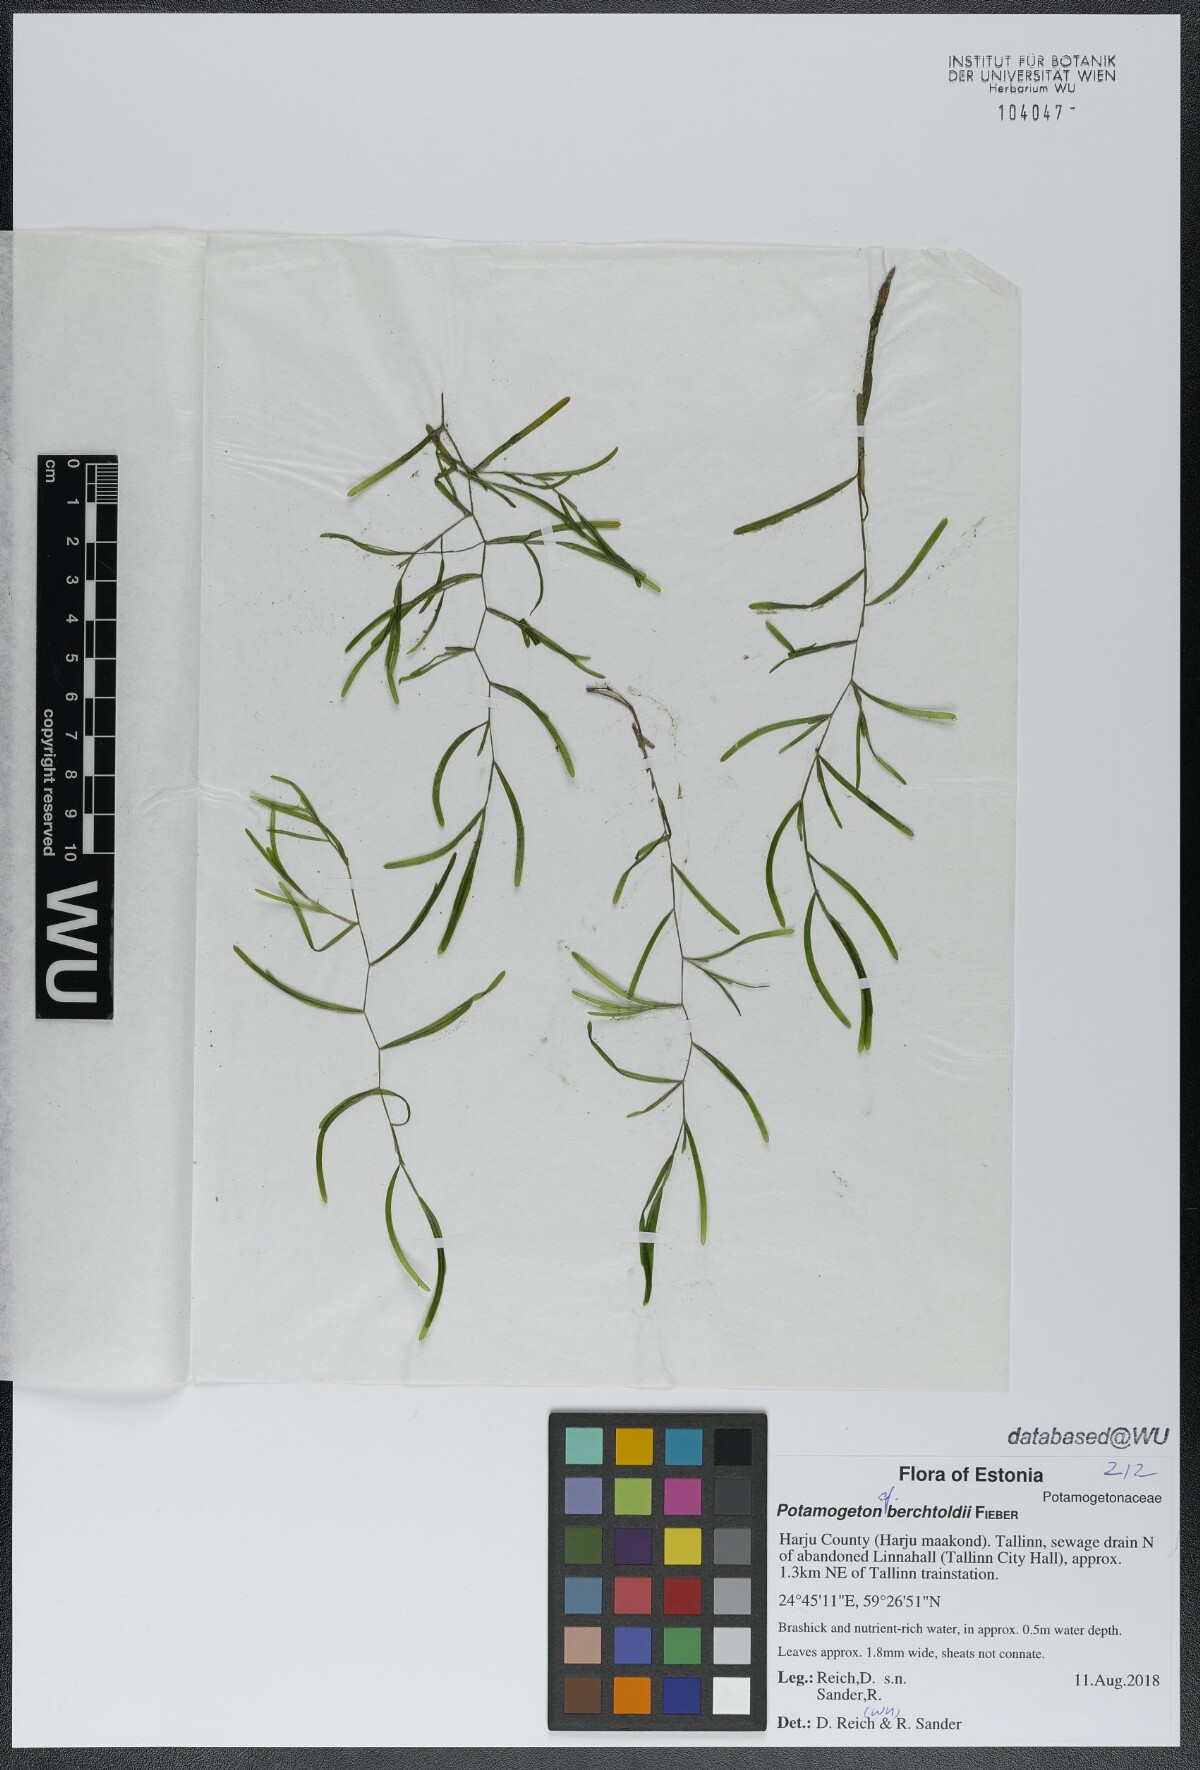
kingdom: Plantae
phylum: Tracheophyta
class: Liliopsida
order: Alismatales
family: Potamogetonaceae
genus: Potamogeton
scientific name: Potamogeton berchtoldii
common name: Small pondweed
